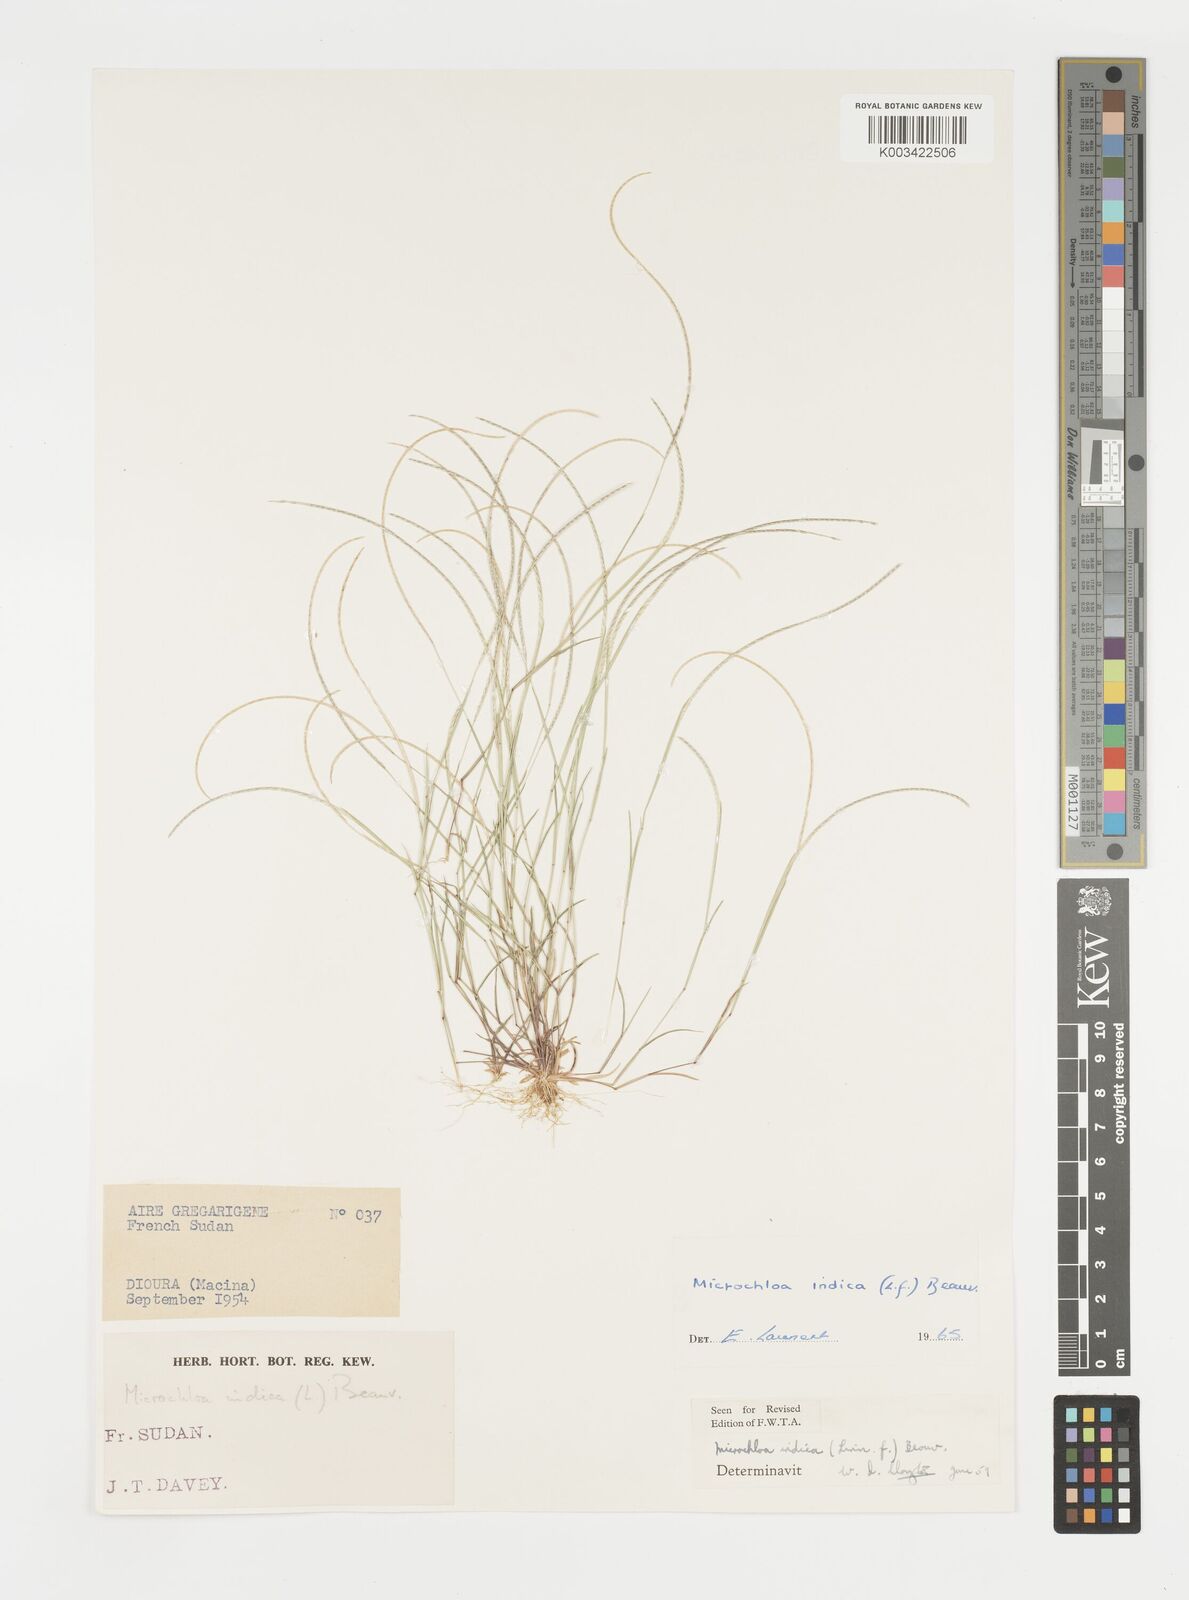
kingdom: Plantae
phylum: Tracheophyta
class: Liliopsida
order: Poales
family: Poaceae
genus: Microchloa
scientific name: Microchloa indica
